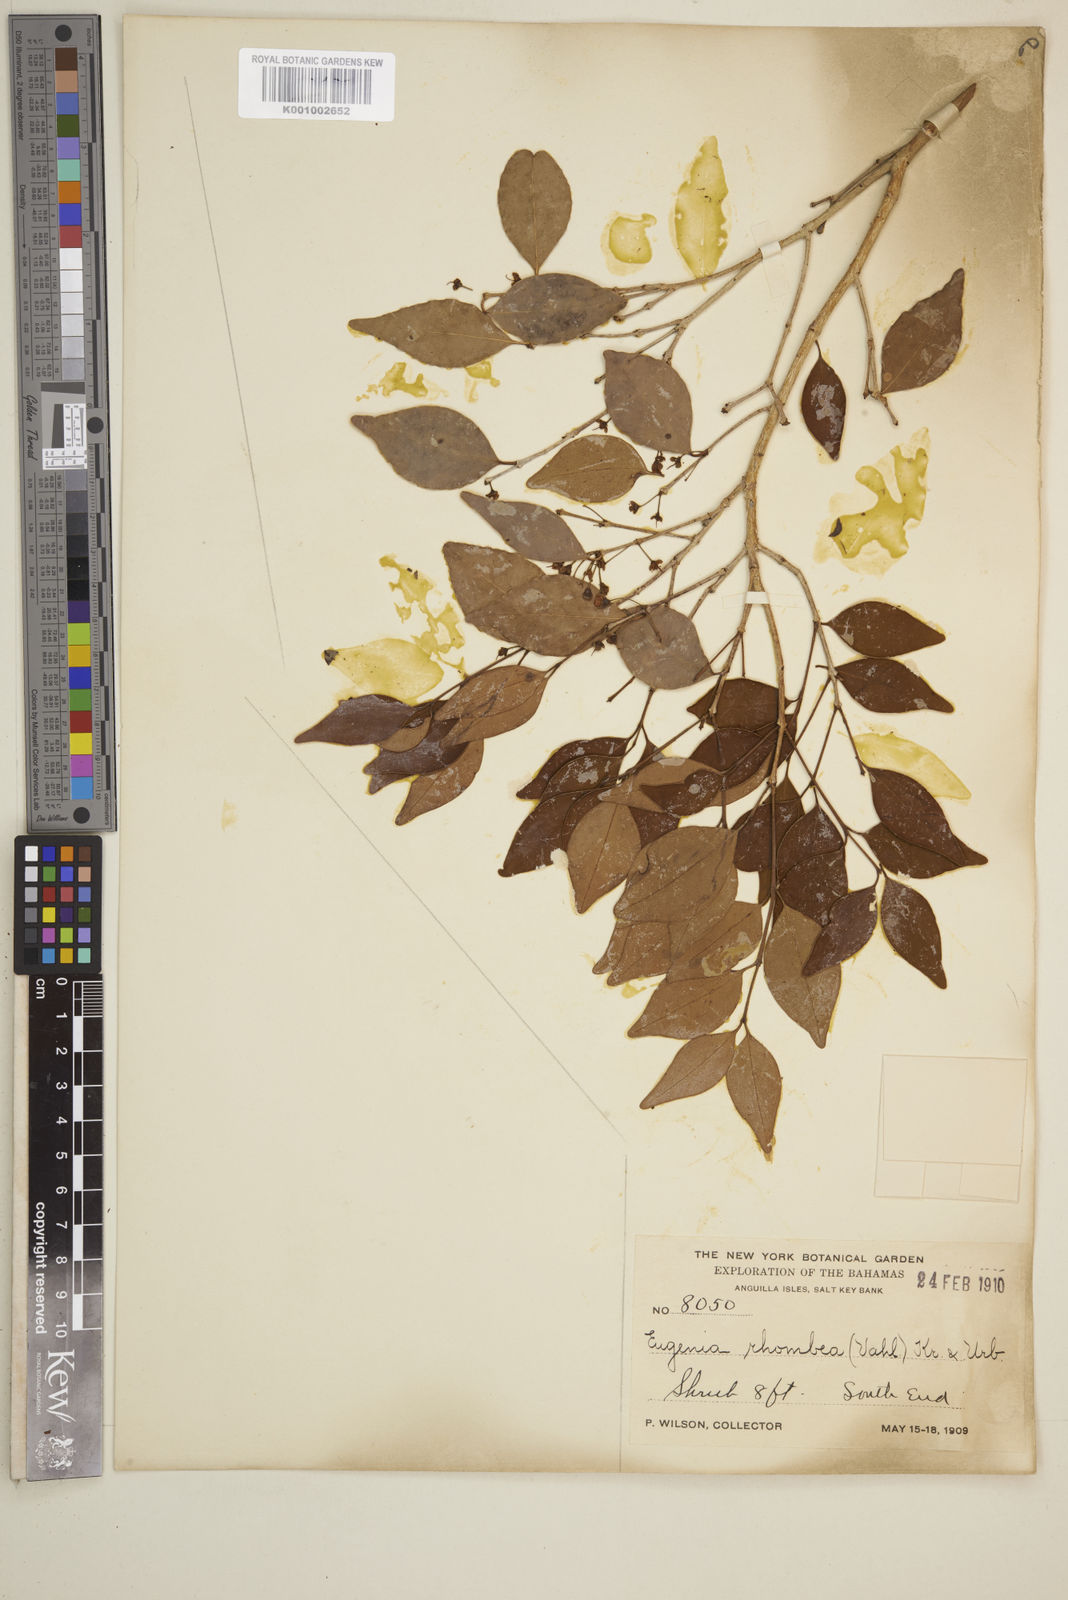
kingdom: Plantae
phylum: Tracheophyta
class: Magnoliopsida
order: Myrtales
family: Myrtaceae
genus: Eugenia
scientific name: Eugenia rhombea
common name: Pigeon berry
